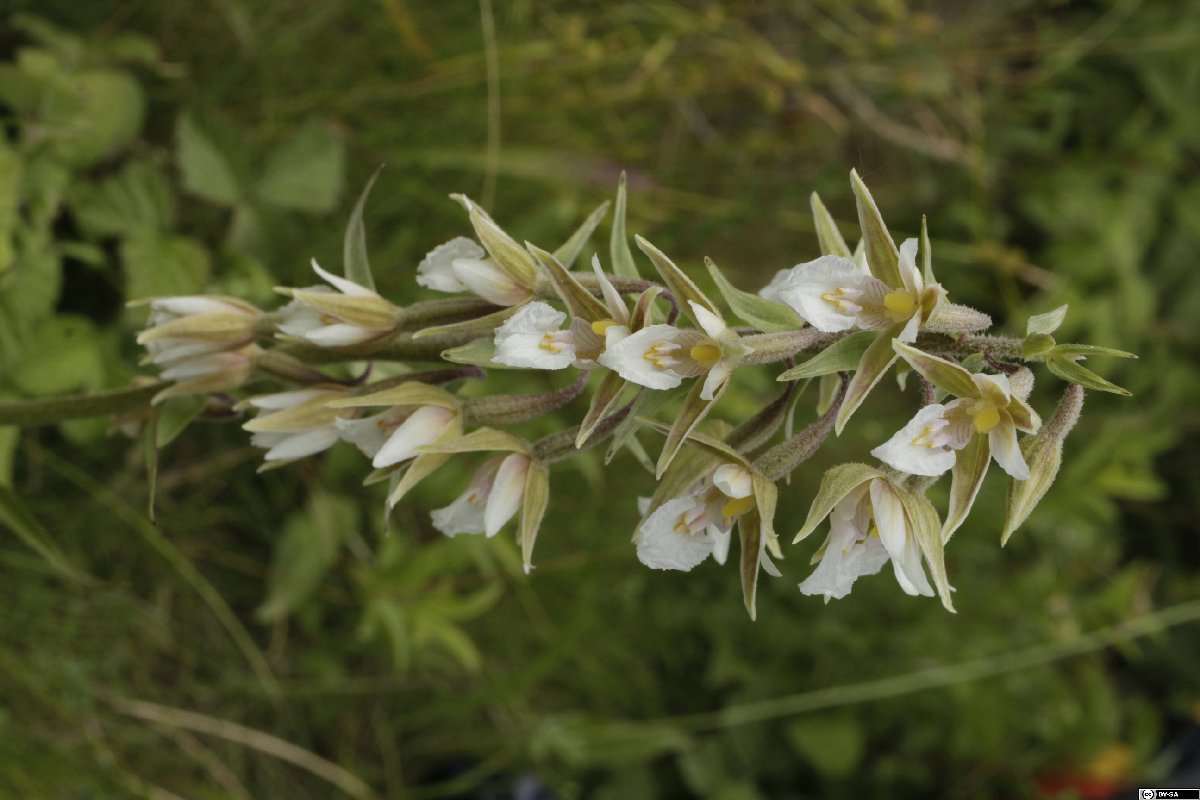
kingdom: Plantae
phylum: Tracheophyta
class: Liliopsida
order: Asparagales
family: Orchidaceae
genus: Epipactis
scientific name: Epipactis palustris
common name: Marsh helleborine
